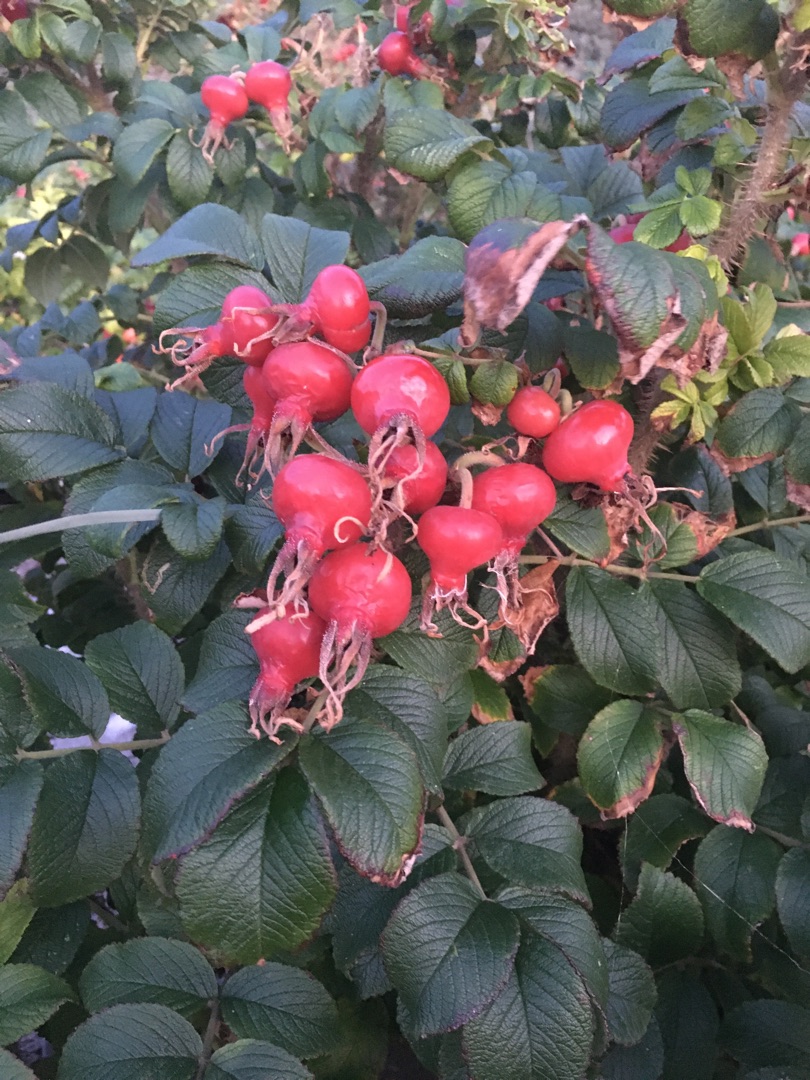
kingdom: Plantae
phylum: Tracheophyta
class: Magnoliopsida
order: Rosales
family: Rosaceae
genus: Rosa
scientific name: Rosa rugosa
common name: Rynket rose
